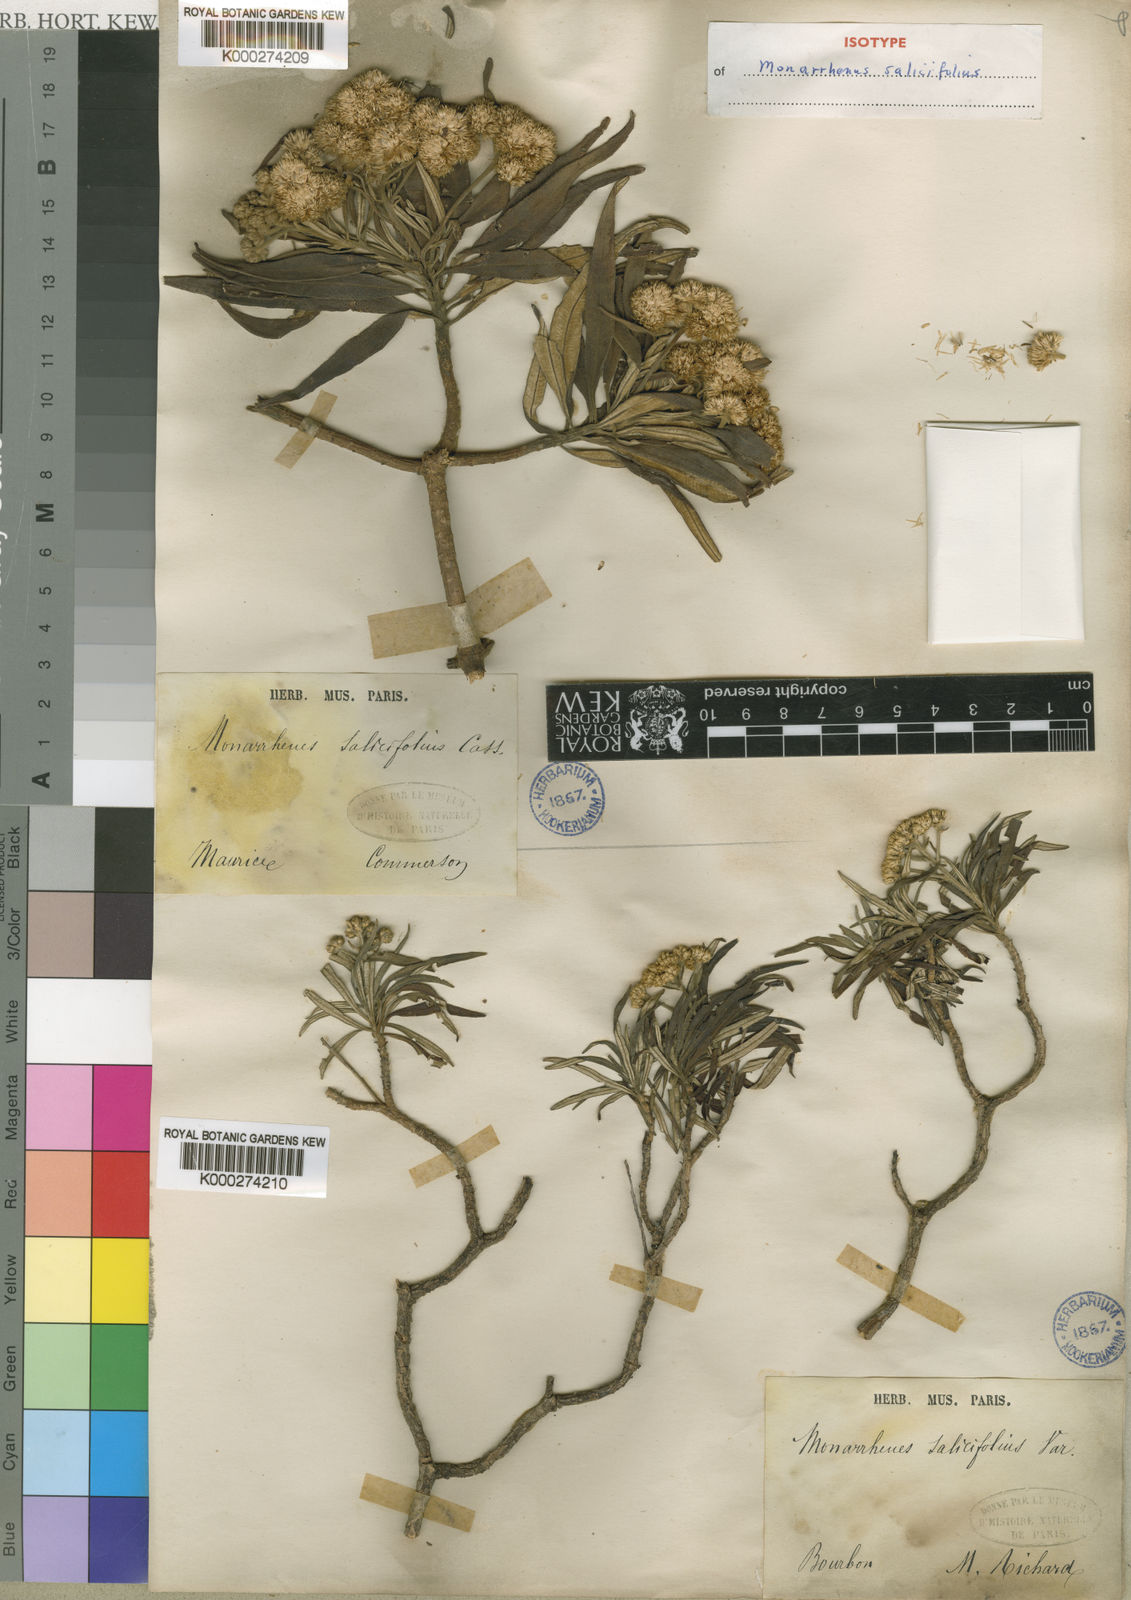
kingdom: Plantae
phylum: Tracheophyta
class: Magnoliopsida
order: Asterales
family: Asteraceae
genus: Monarrhenus
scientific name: Monarrhenus salicifolius
